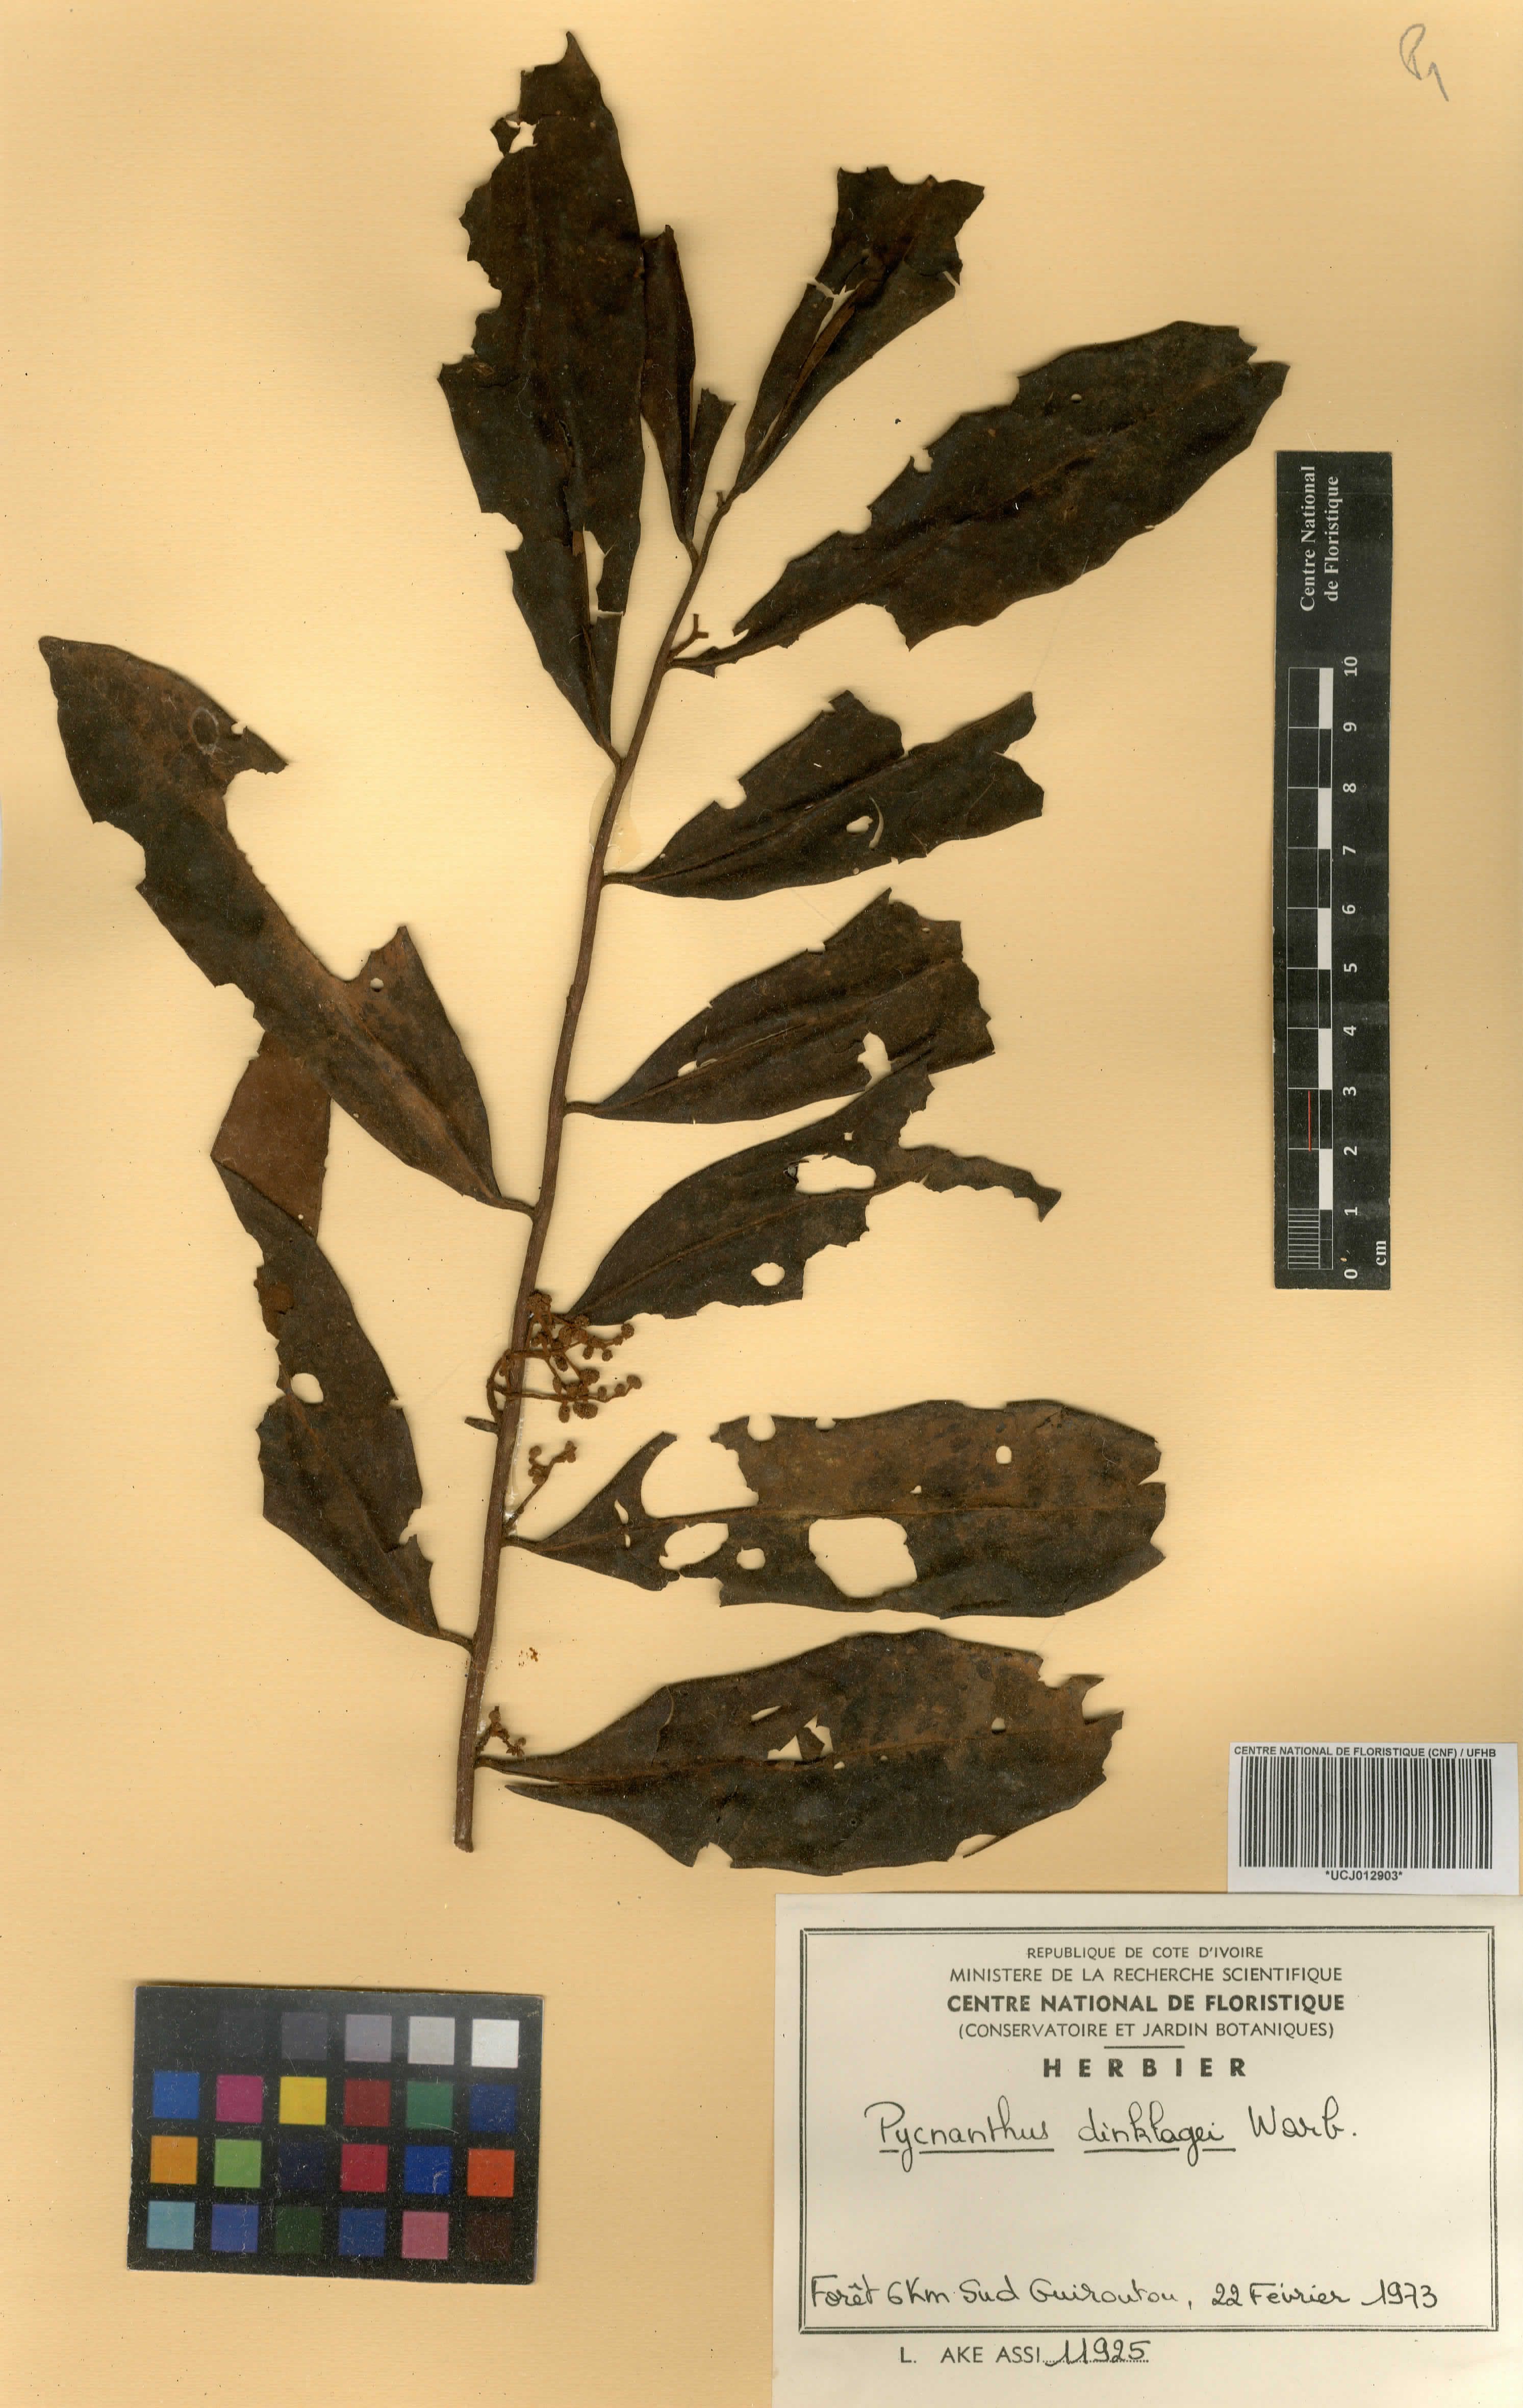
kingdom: Plantae
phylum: Tracheophyta
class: Magnoliopsida
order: Magnoliales
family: Myristicaceae
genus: Pycnanthus
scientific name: Pycnanthus dinklagei
